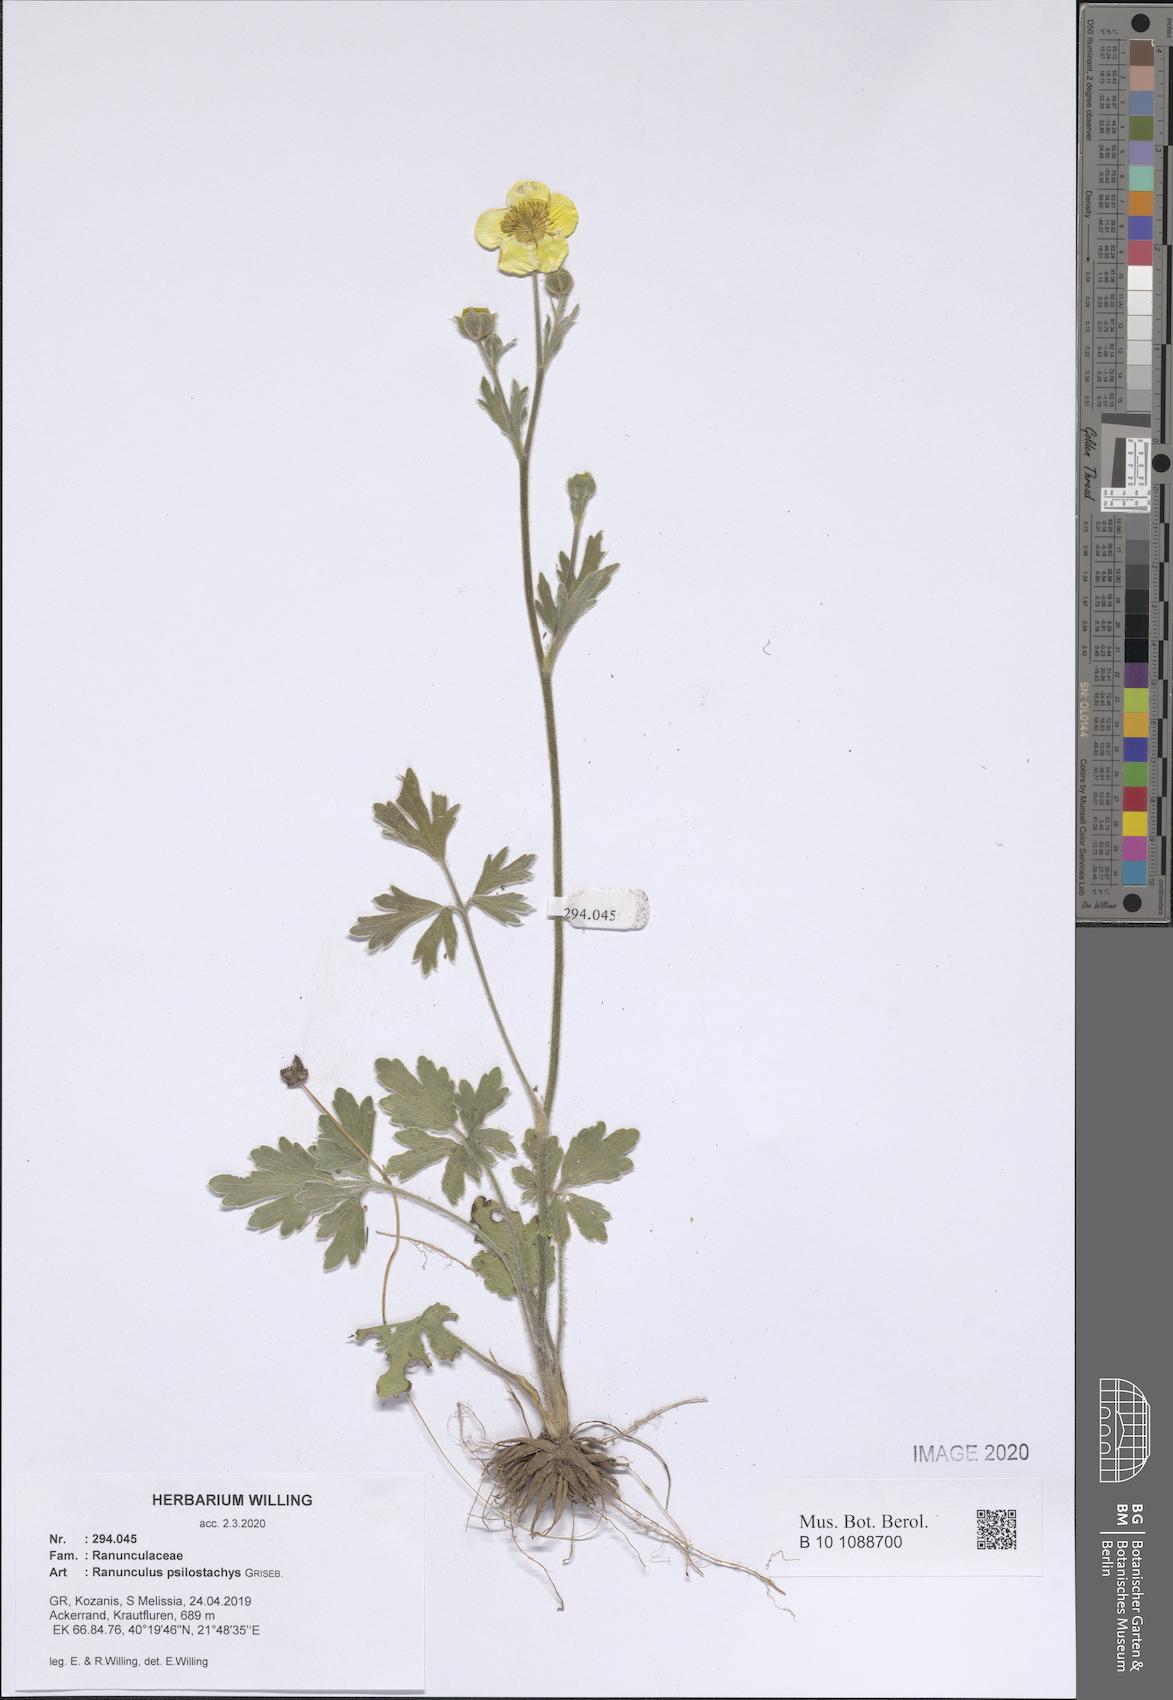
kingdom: Plantae
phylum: Tracheophyta
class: Magnoliopsida
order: Ranunculales
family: Ranunculaceae
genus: Ranunculus
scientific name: Ranunculus psilostachys
